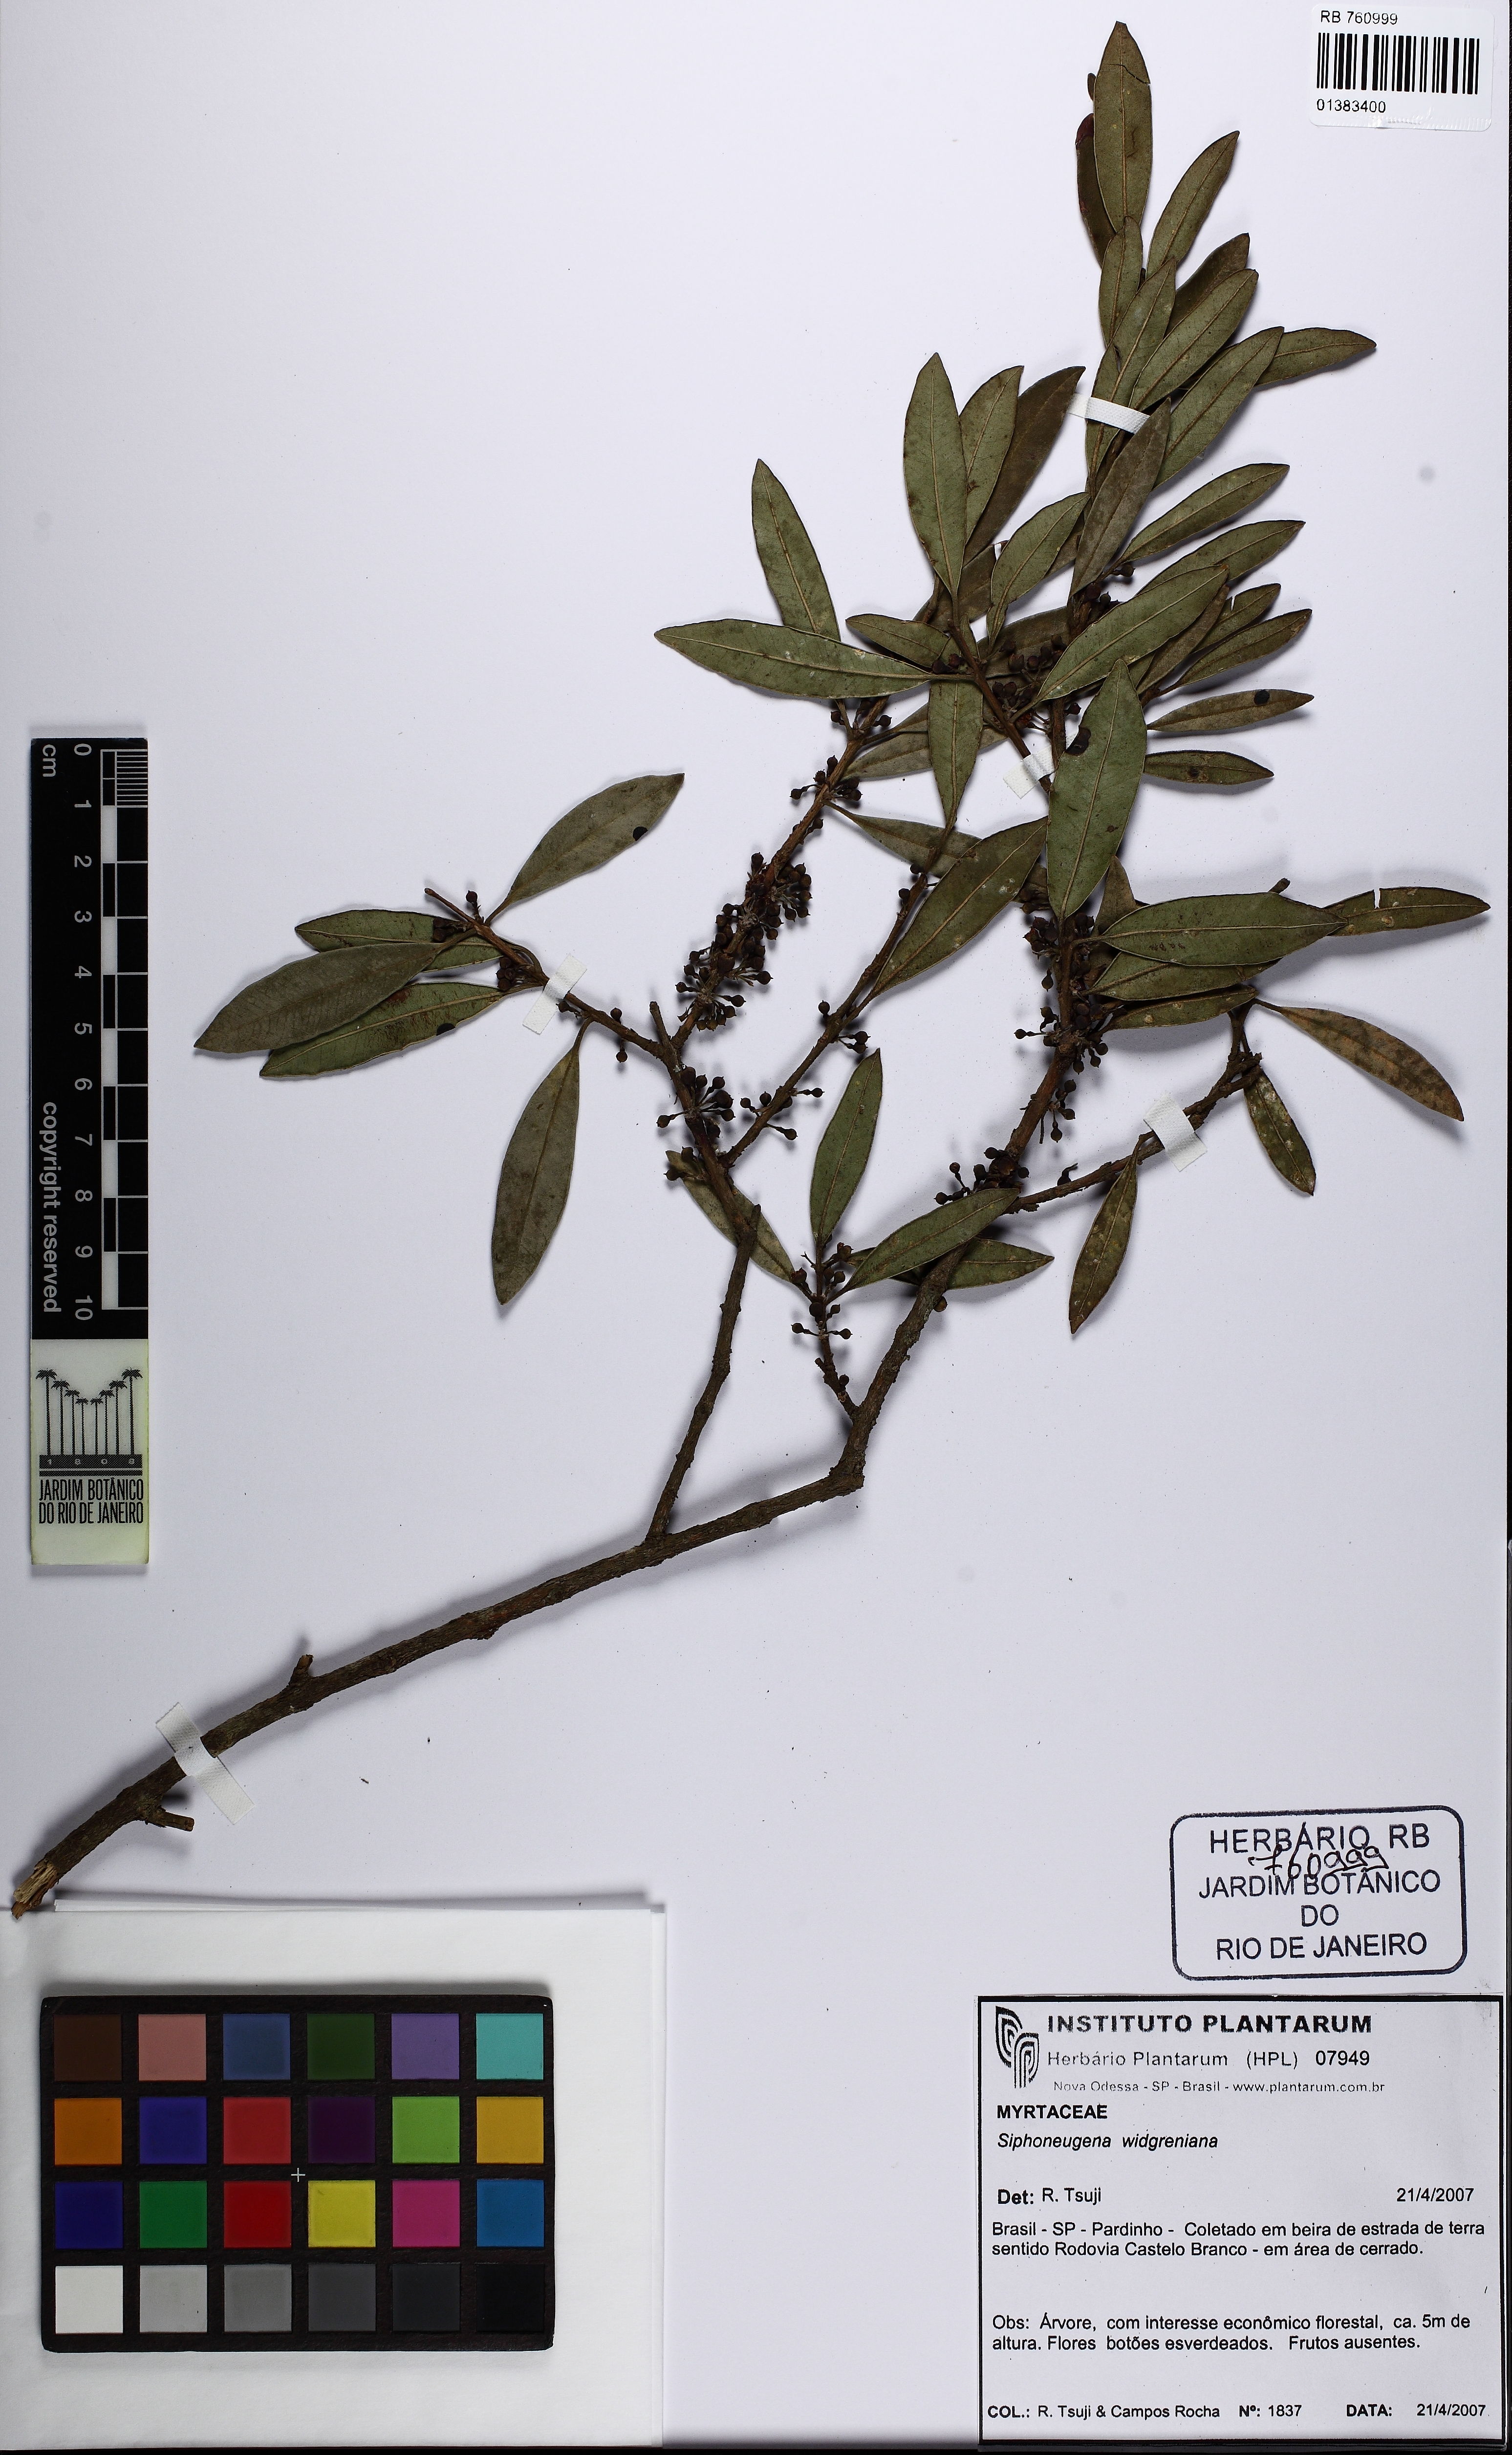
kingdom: Plantae
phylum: Tracheophyta
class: Magnoliopsida
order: Myrtales
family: Myrtaceae
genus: Siphoneugena
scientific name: Siphoneugena crassifolia
